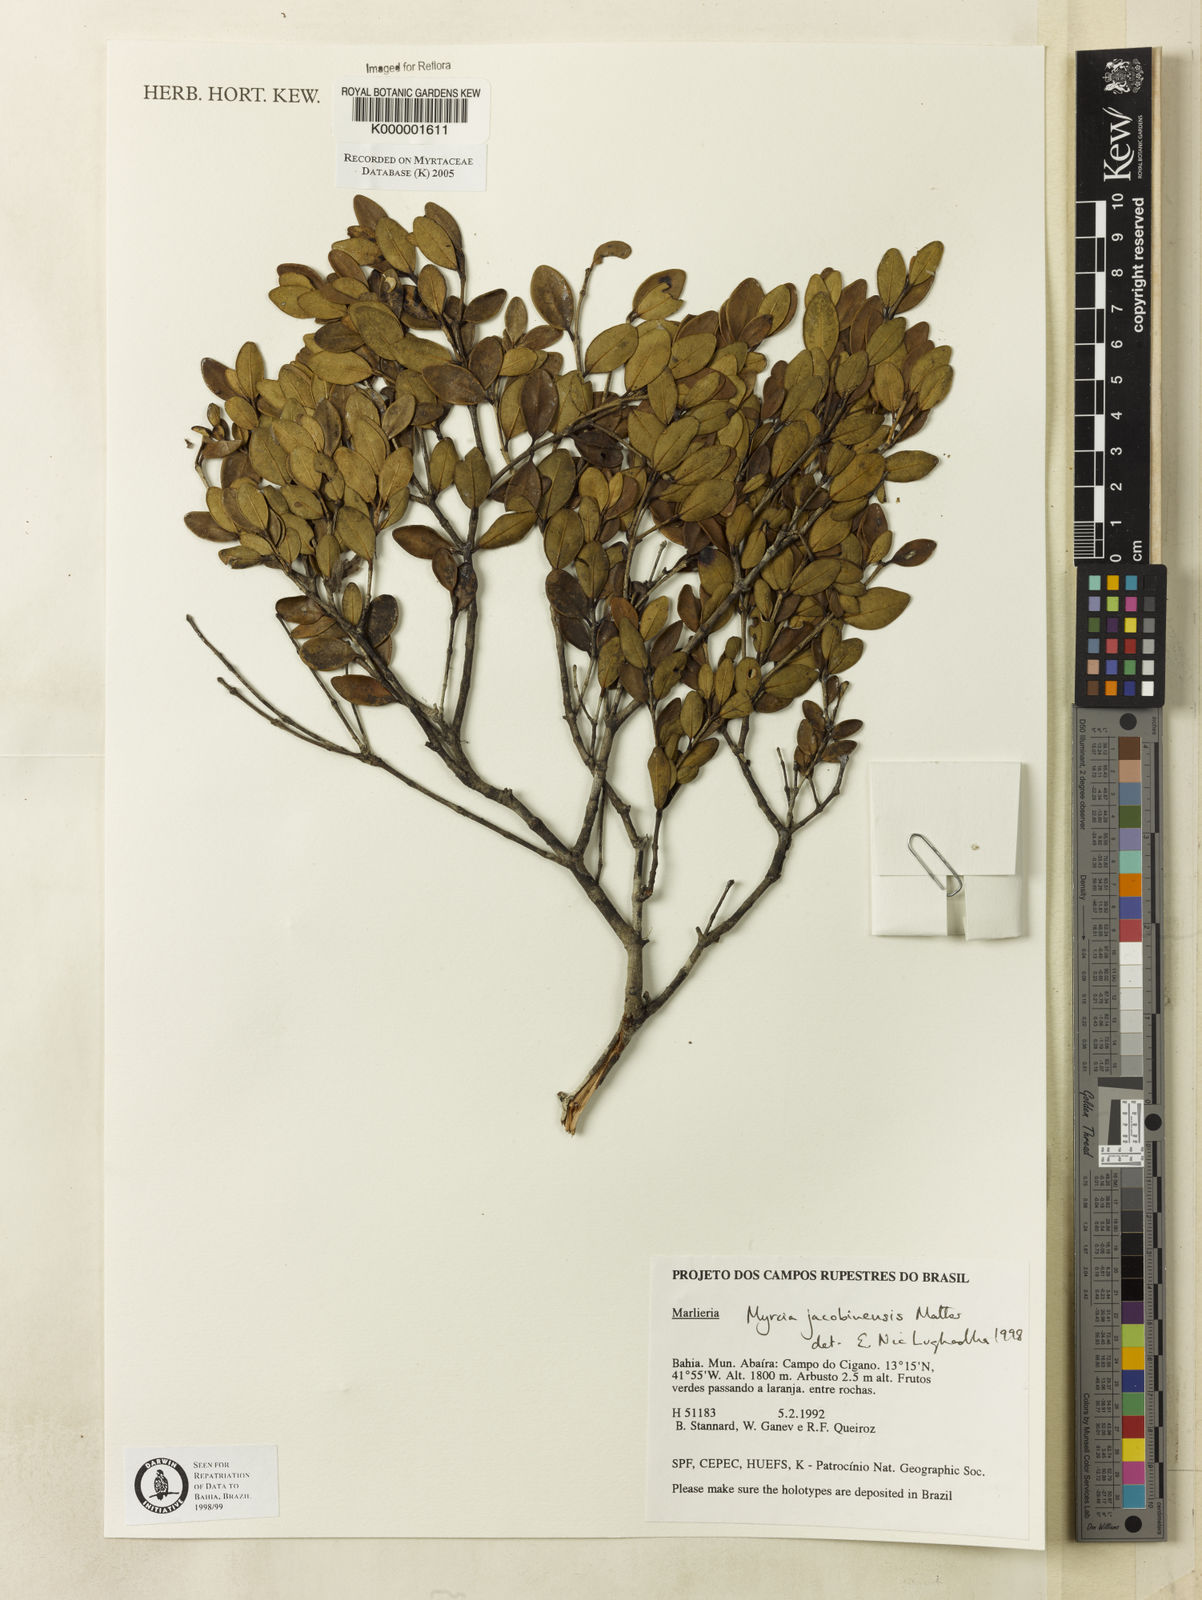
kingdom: Plantae
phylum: Tracheophyta
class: Magnoliopsida
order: Myrtales
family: Myrtaceae
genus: Myrcia
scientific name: Myrcia jacobinensis
